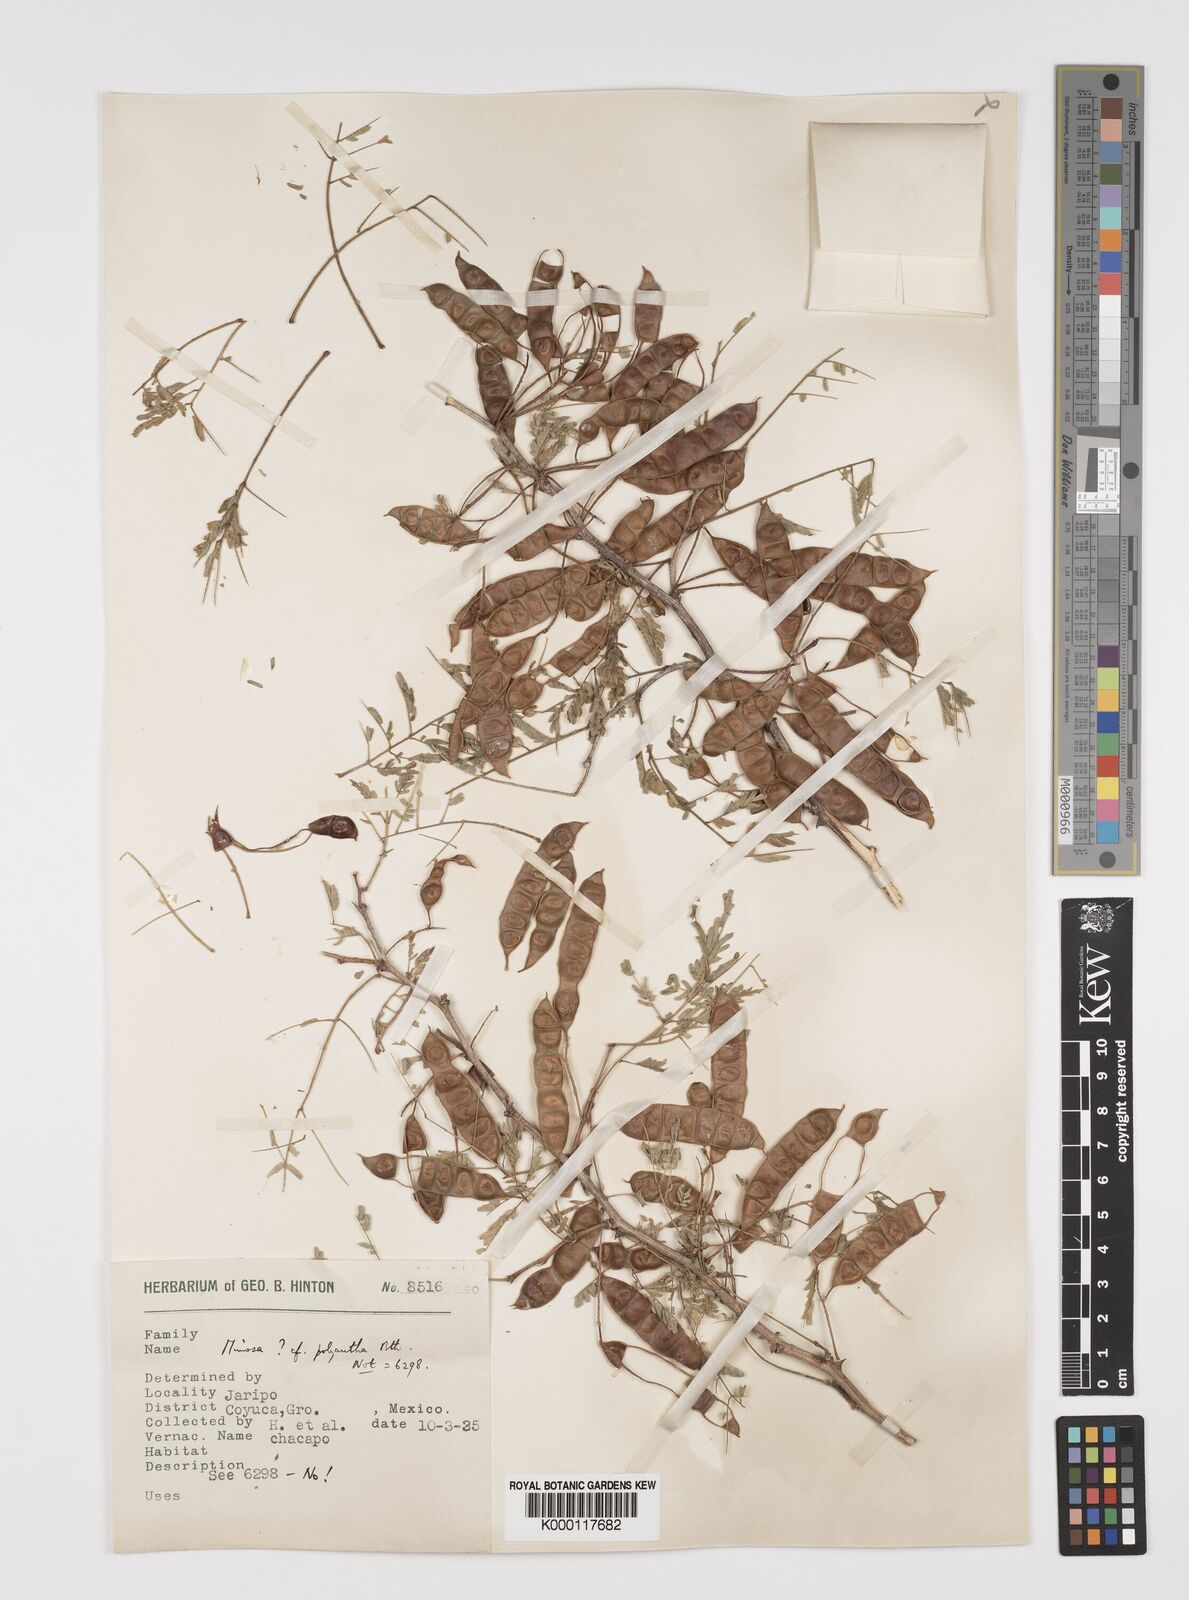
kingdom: Plantae
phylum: Tracheophyta
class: Magnoliopsida
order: Fabales
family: Fabaceae
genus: Mimosa
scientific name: Mimosa polyantha
